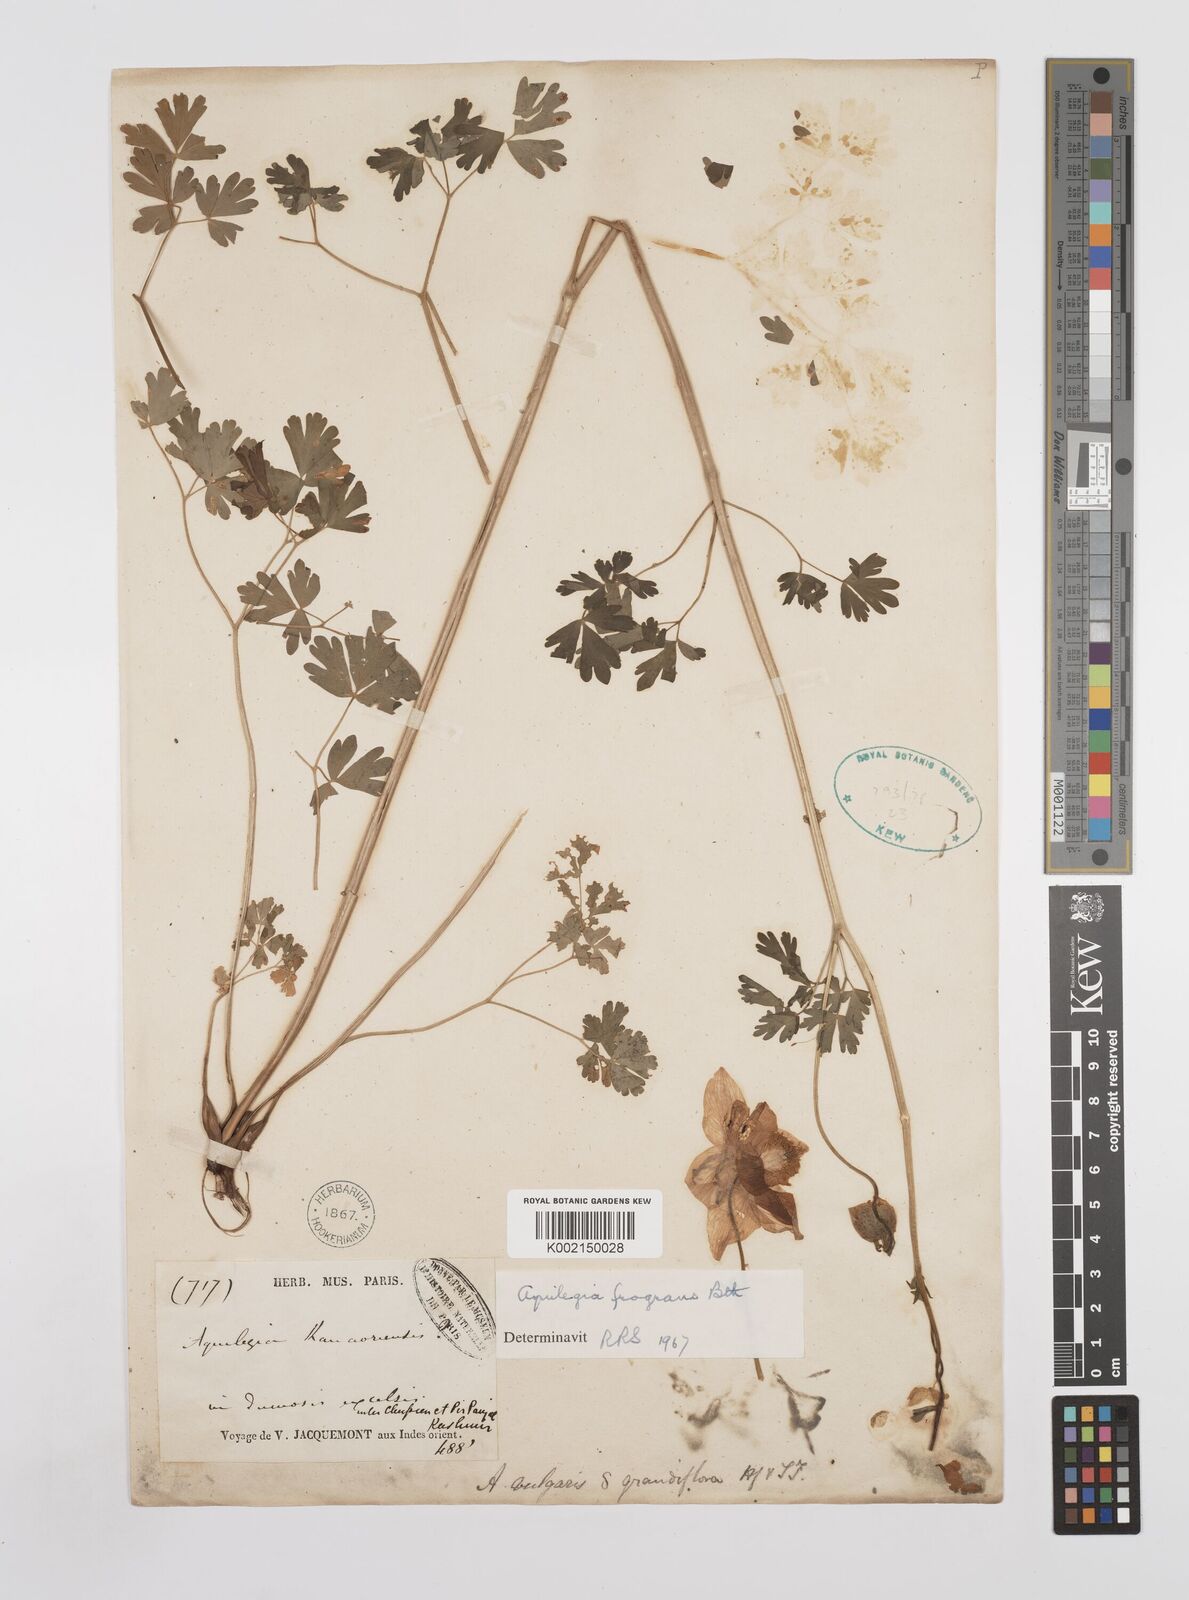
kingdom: Plantae
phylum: Tracheophyta
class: Magnoliopsida
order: Ranunculales
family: Ranunculaceae
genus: Aquilegia
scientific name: Aquilegia
